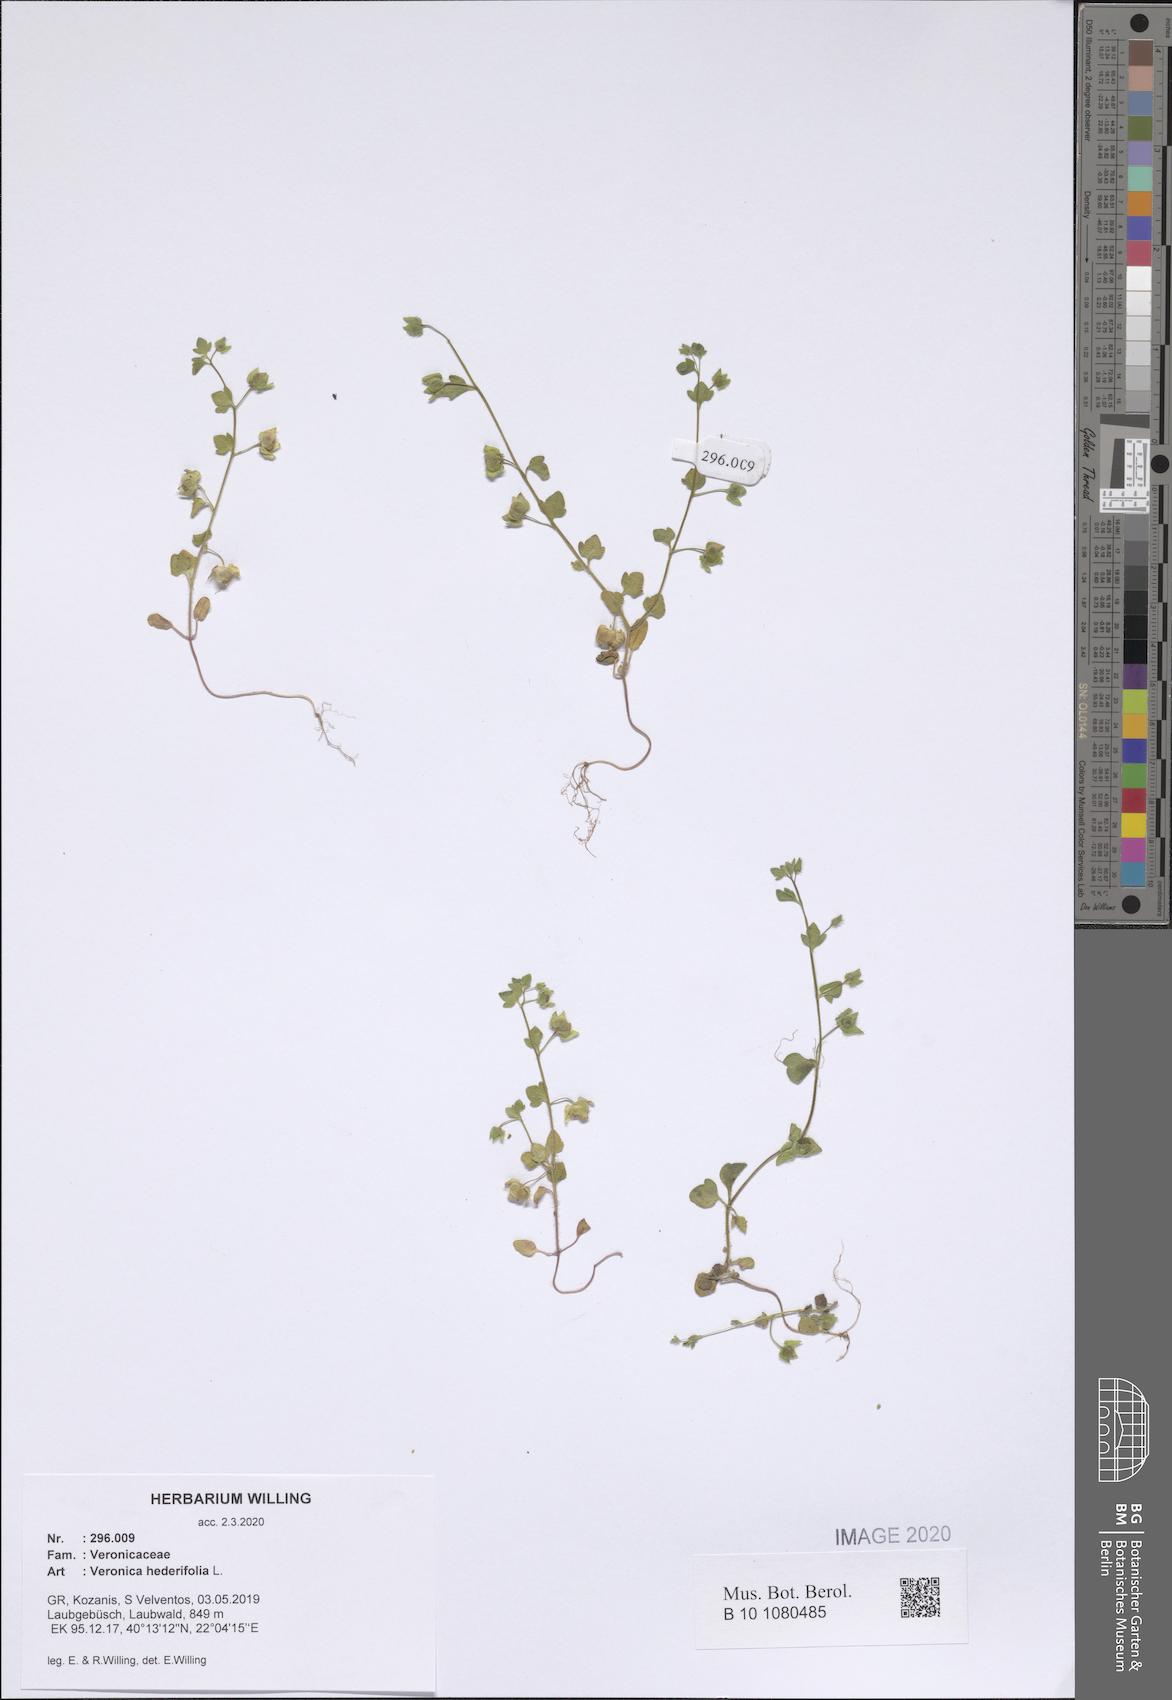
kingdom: Plantae
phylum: Tracheophyta
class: Magnoliopsida
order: Lamiales
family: Plantaginaceae
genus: Veronica
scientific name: Veronica hederifolia
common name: Ivy-leaved speedwell
